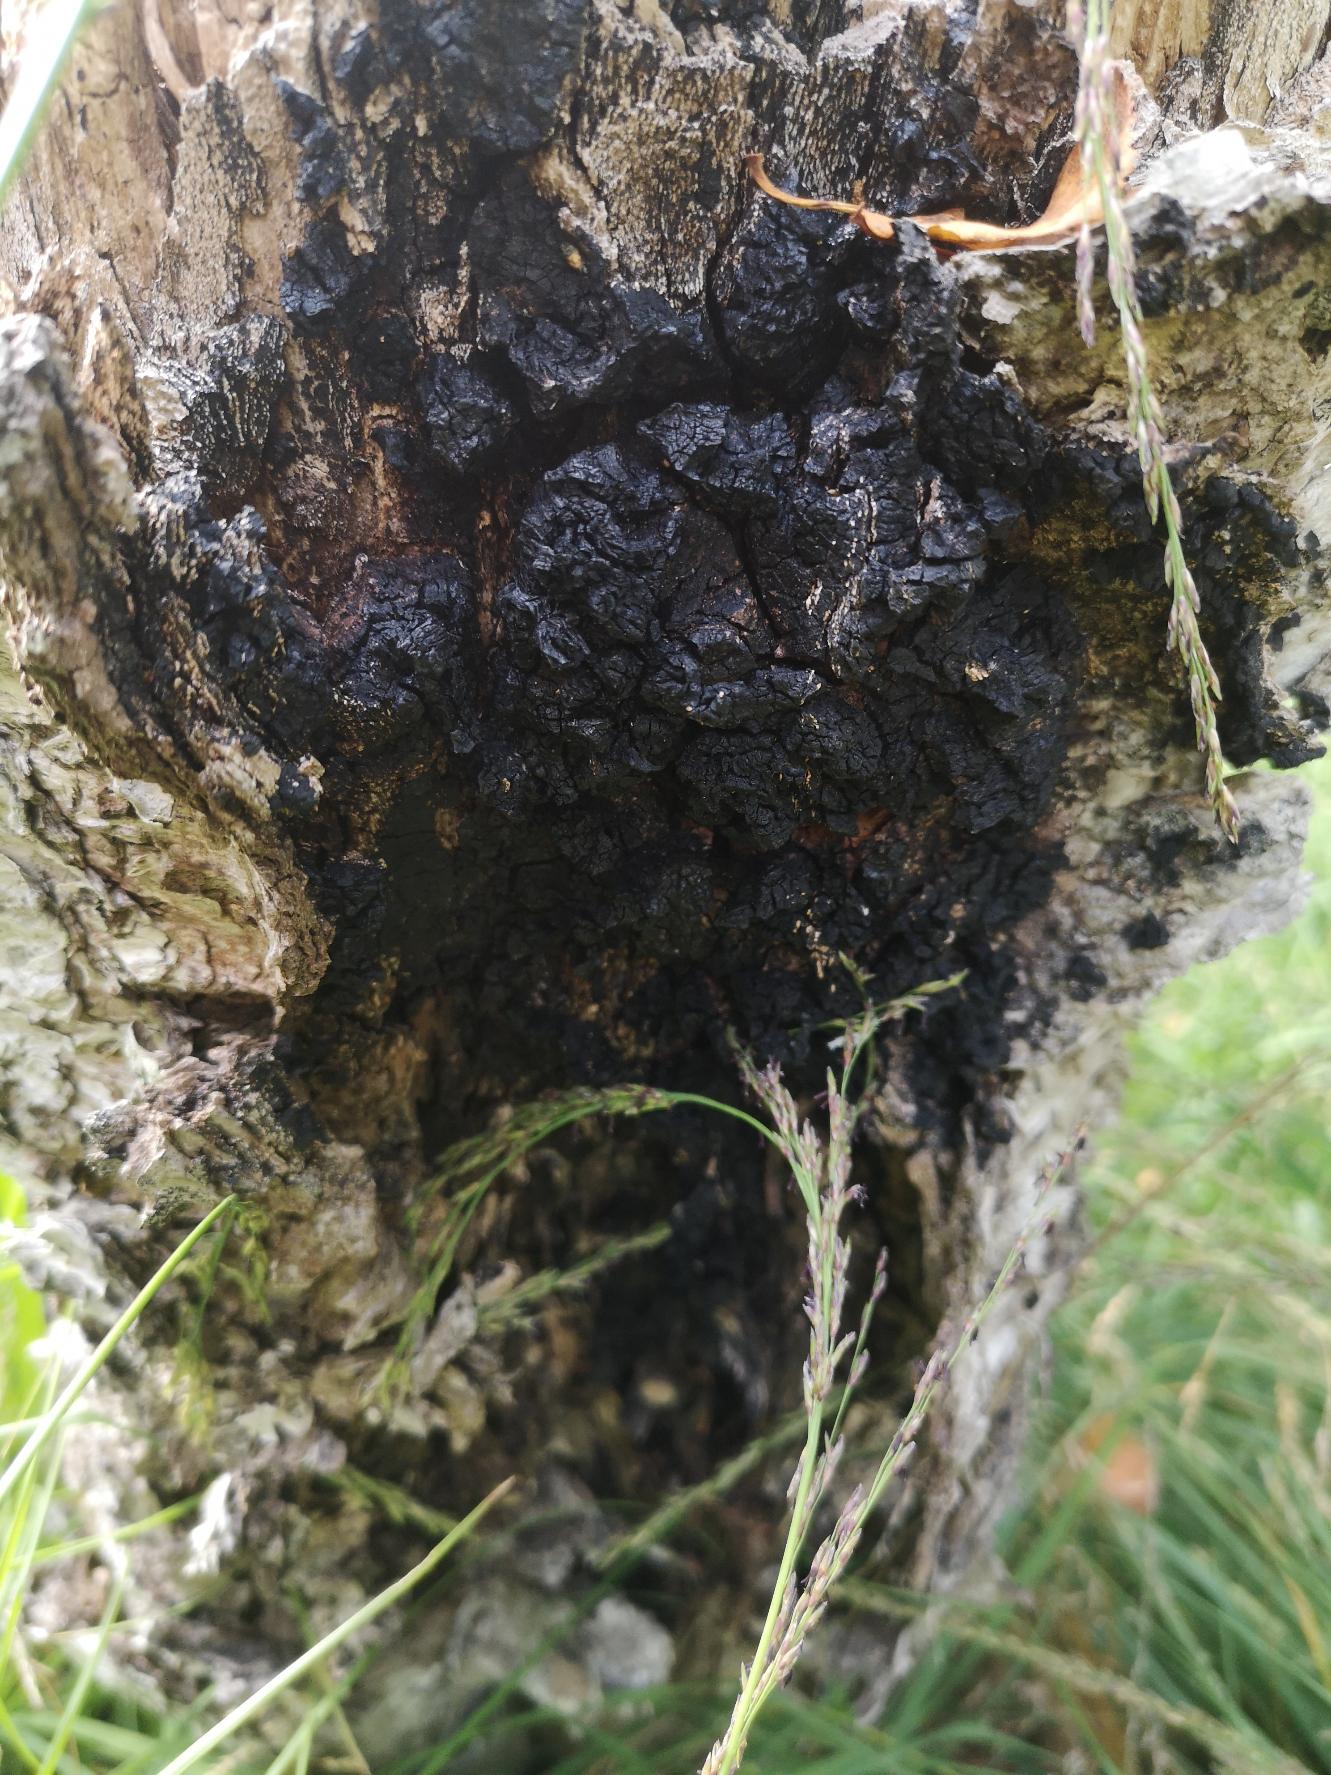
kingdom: Fungi
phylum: Basidiomycota
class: Agaricomycetes
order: Hymenochaetales
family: Hymenochaetaceae
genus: Inonotus
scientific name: Inonotus obliquus
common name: Birke-spejlporesvamp
